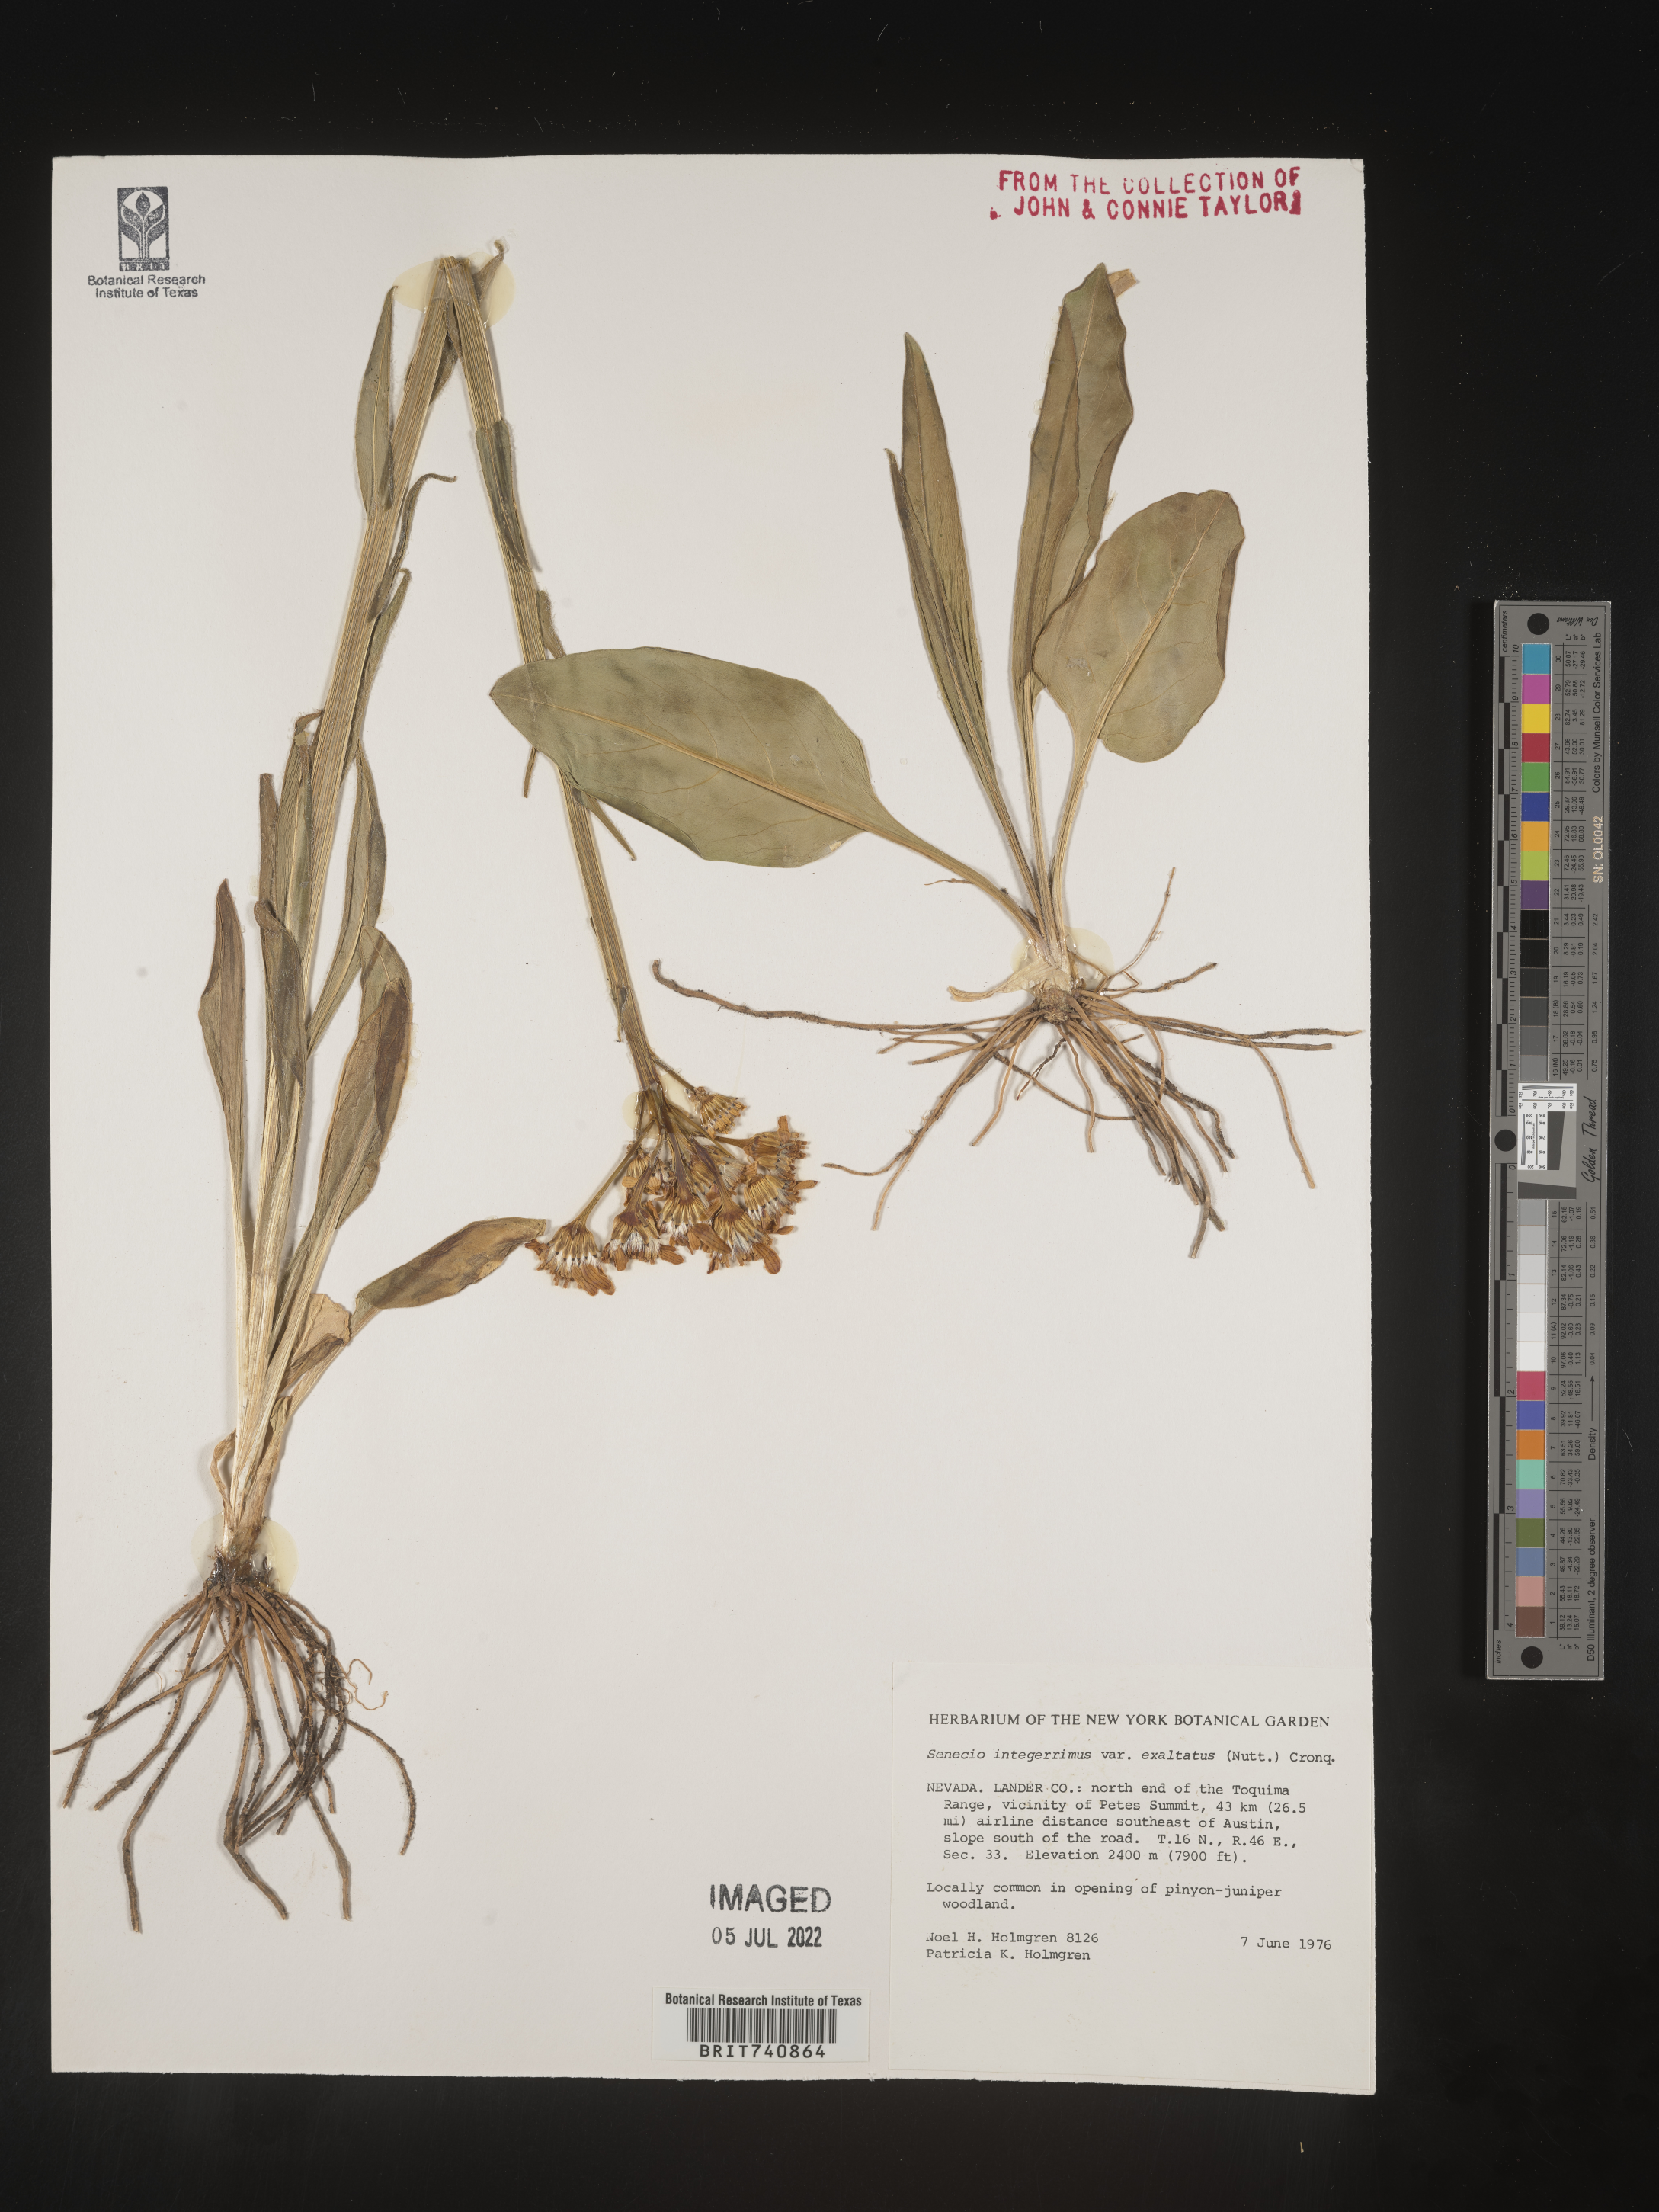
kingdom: Plantae
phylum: Tracheophyta
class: Magnoliopsida
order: Asterales
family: Asteraceae
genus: Senecio
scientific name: Senecio integerrimus
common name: Gaugeplant
